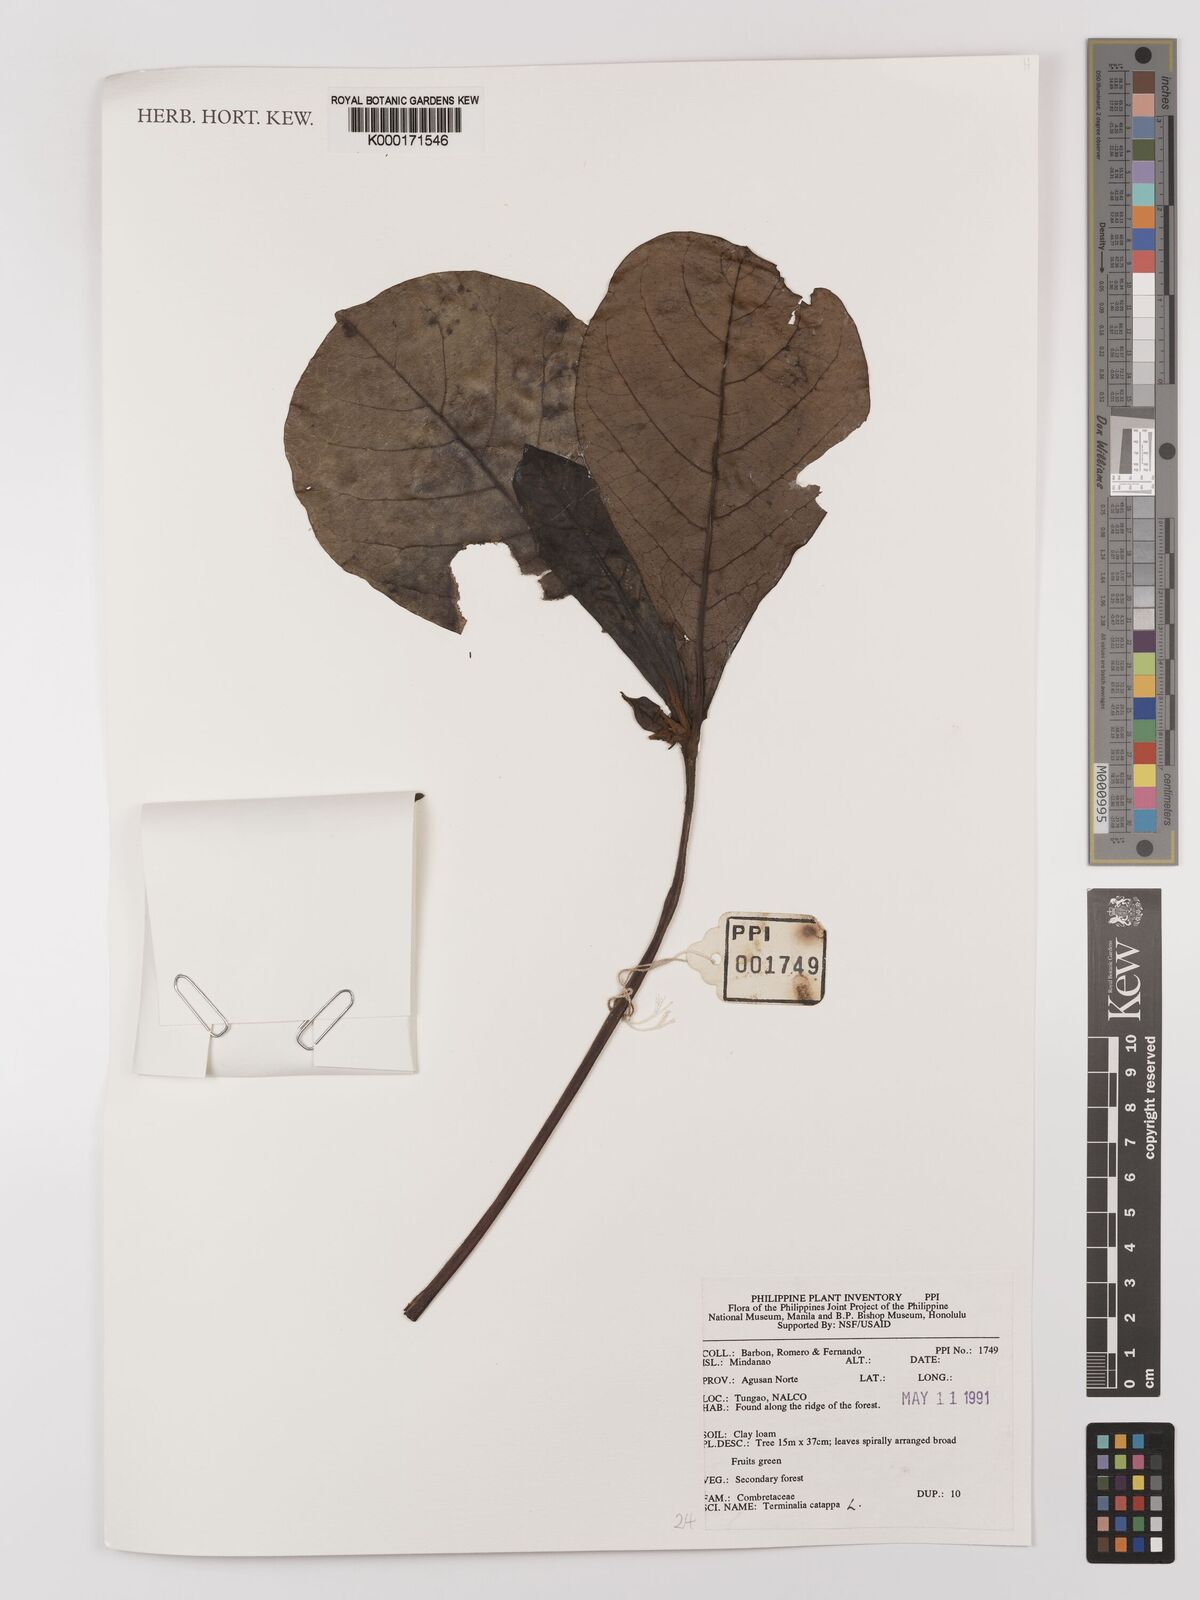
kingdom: Plantae
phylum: Tracheophyta
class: Magnoliopsida
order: Myrtales
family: Combretaceae
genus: Terminalia
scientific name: Terminalia catappa
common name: Tropical almond
